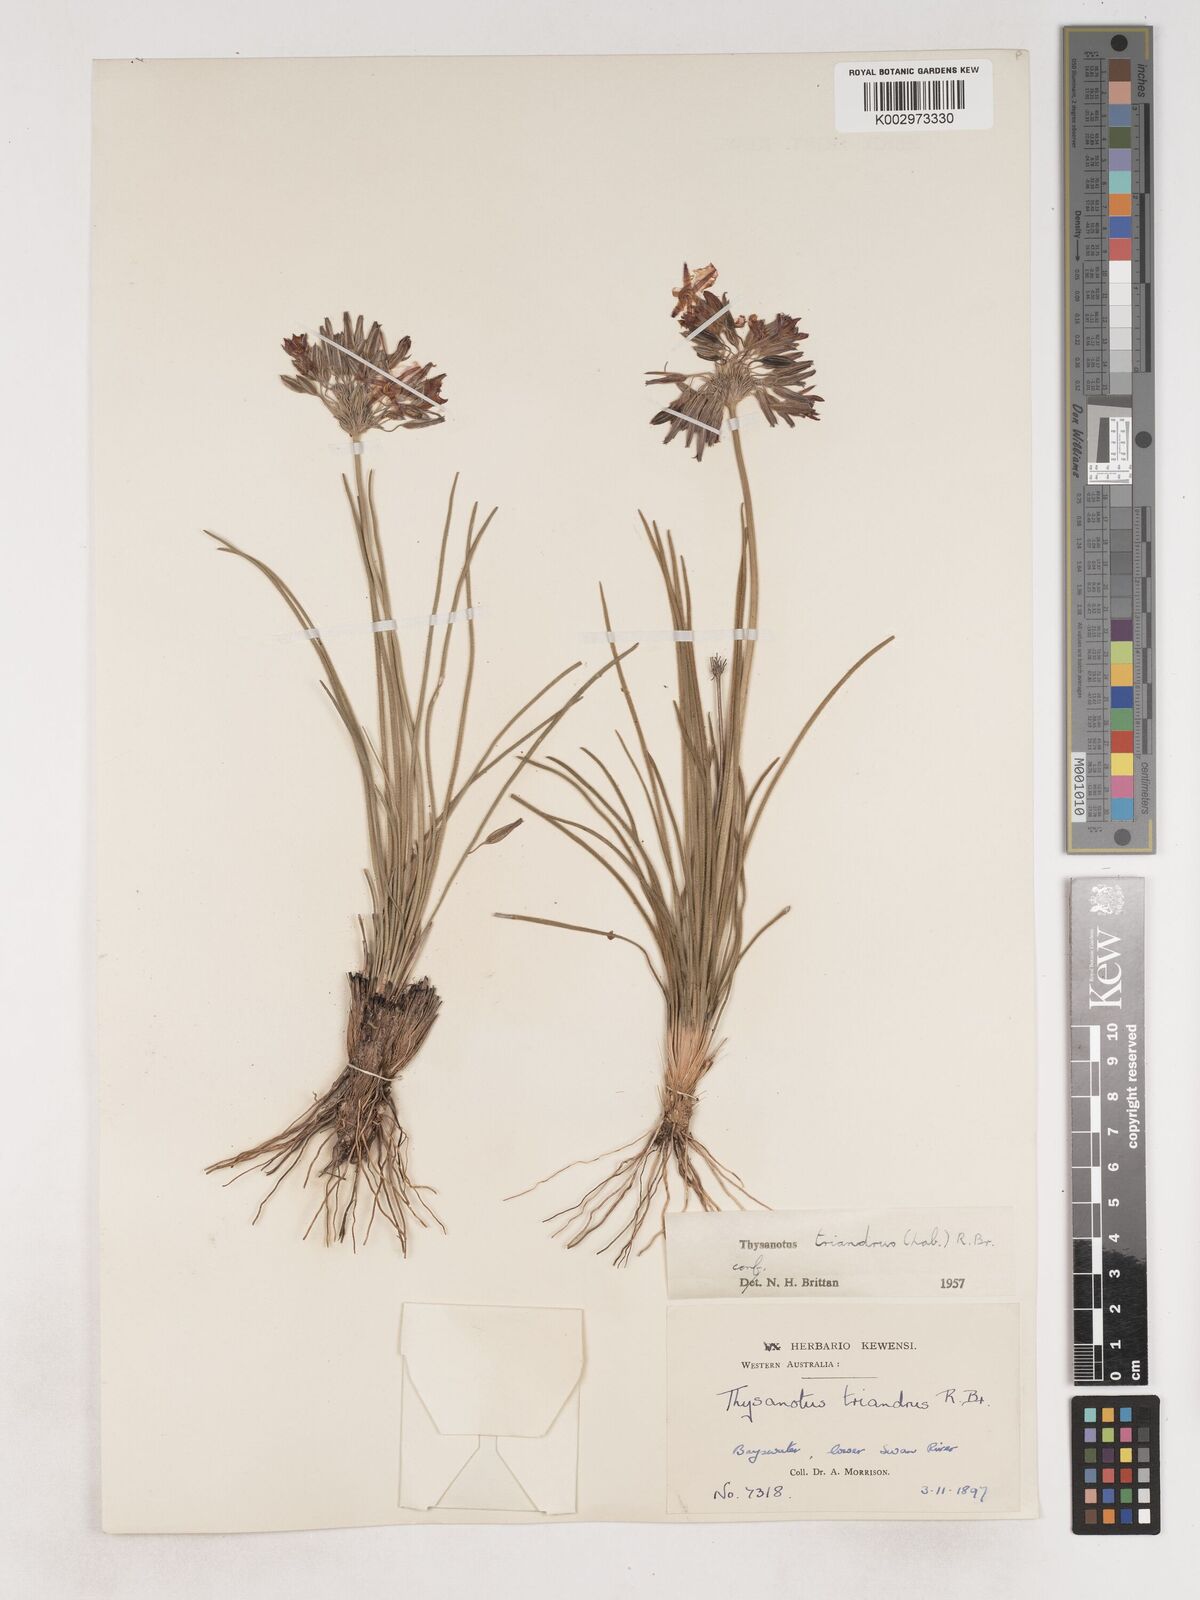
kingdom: Plantae
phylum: Tracheophyta
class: Liliopsida
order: Asparagales
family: Asparagaceae
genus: Thysanotus
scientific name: Thysanotus triandrus
